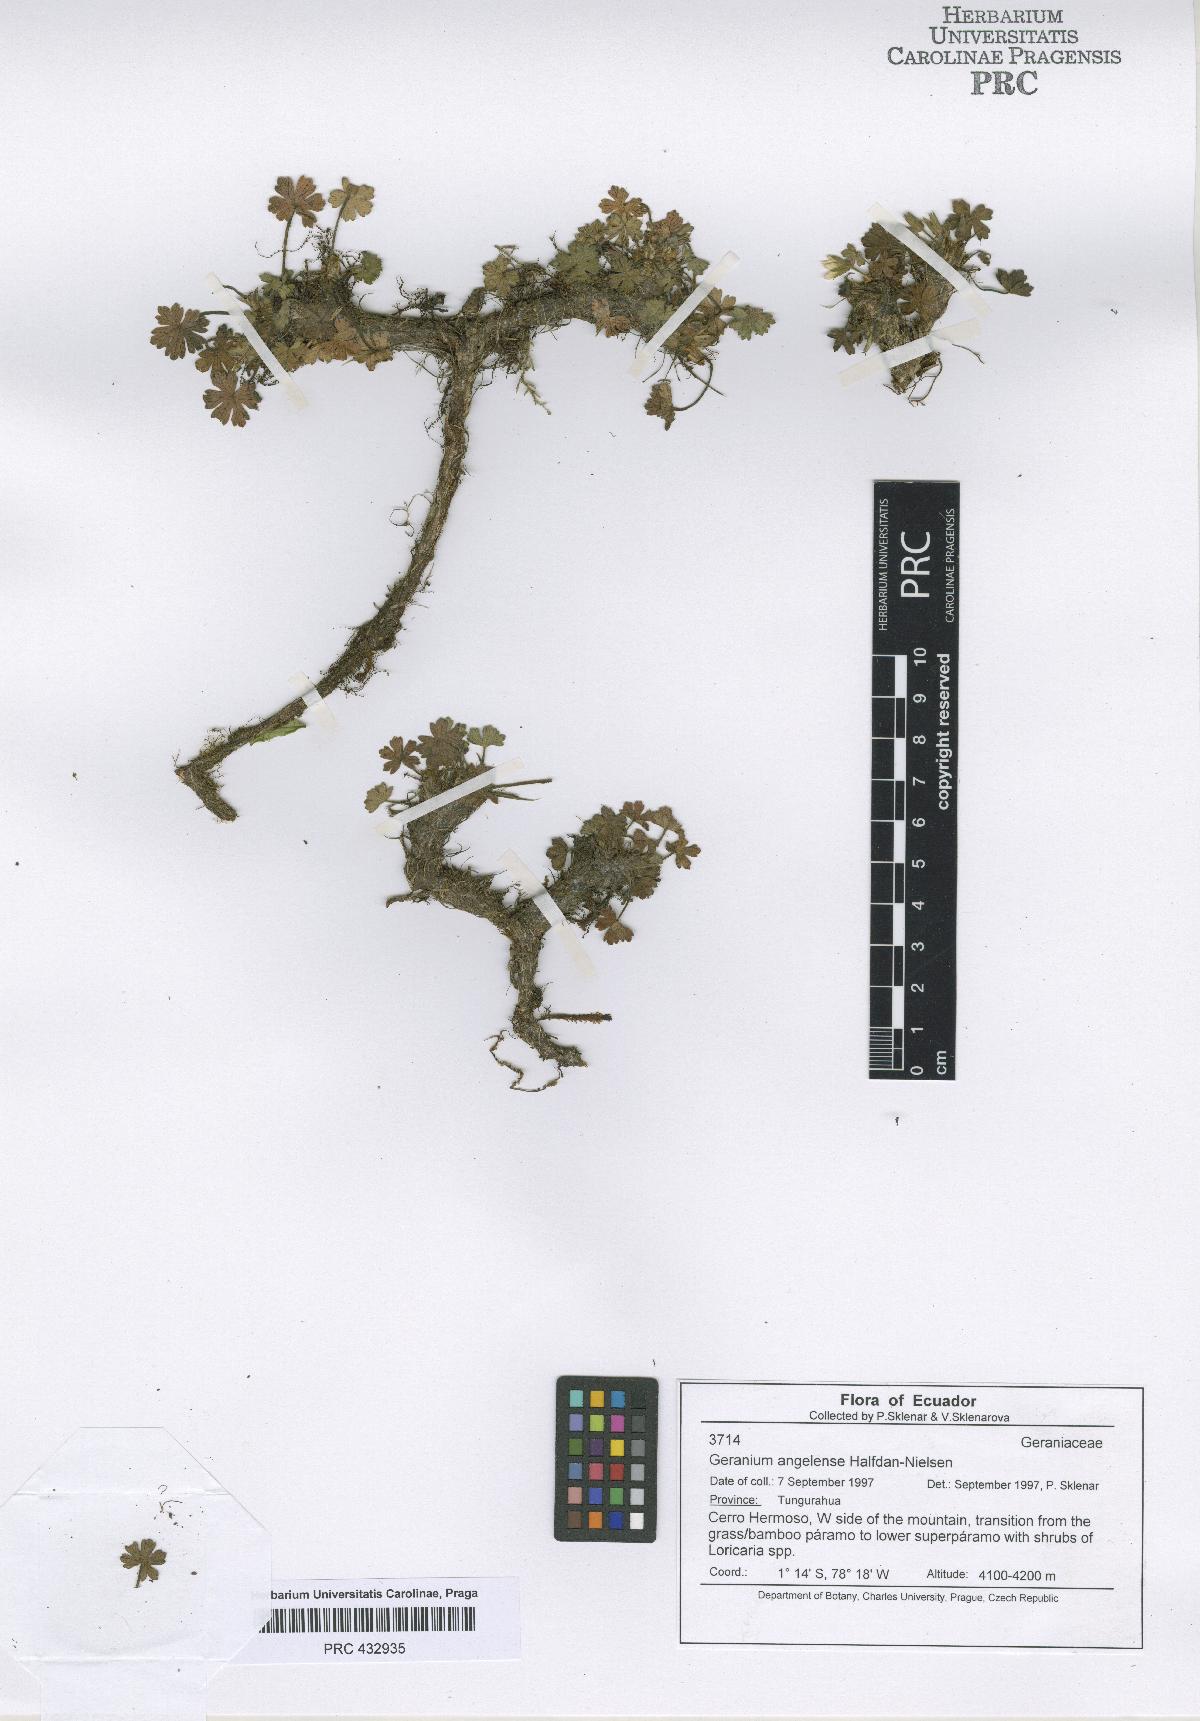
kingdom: Plantae
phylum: Tracheophyta
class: Magnoliopsida
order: Geraniales
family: Geraniaceae
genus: Geranium
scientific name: Geranium stramineum
